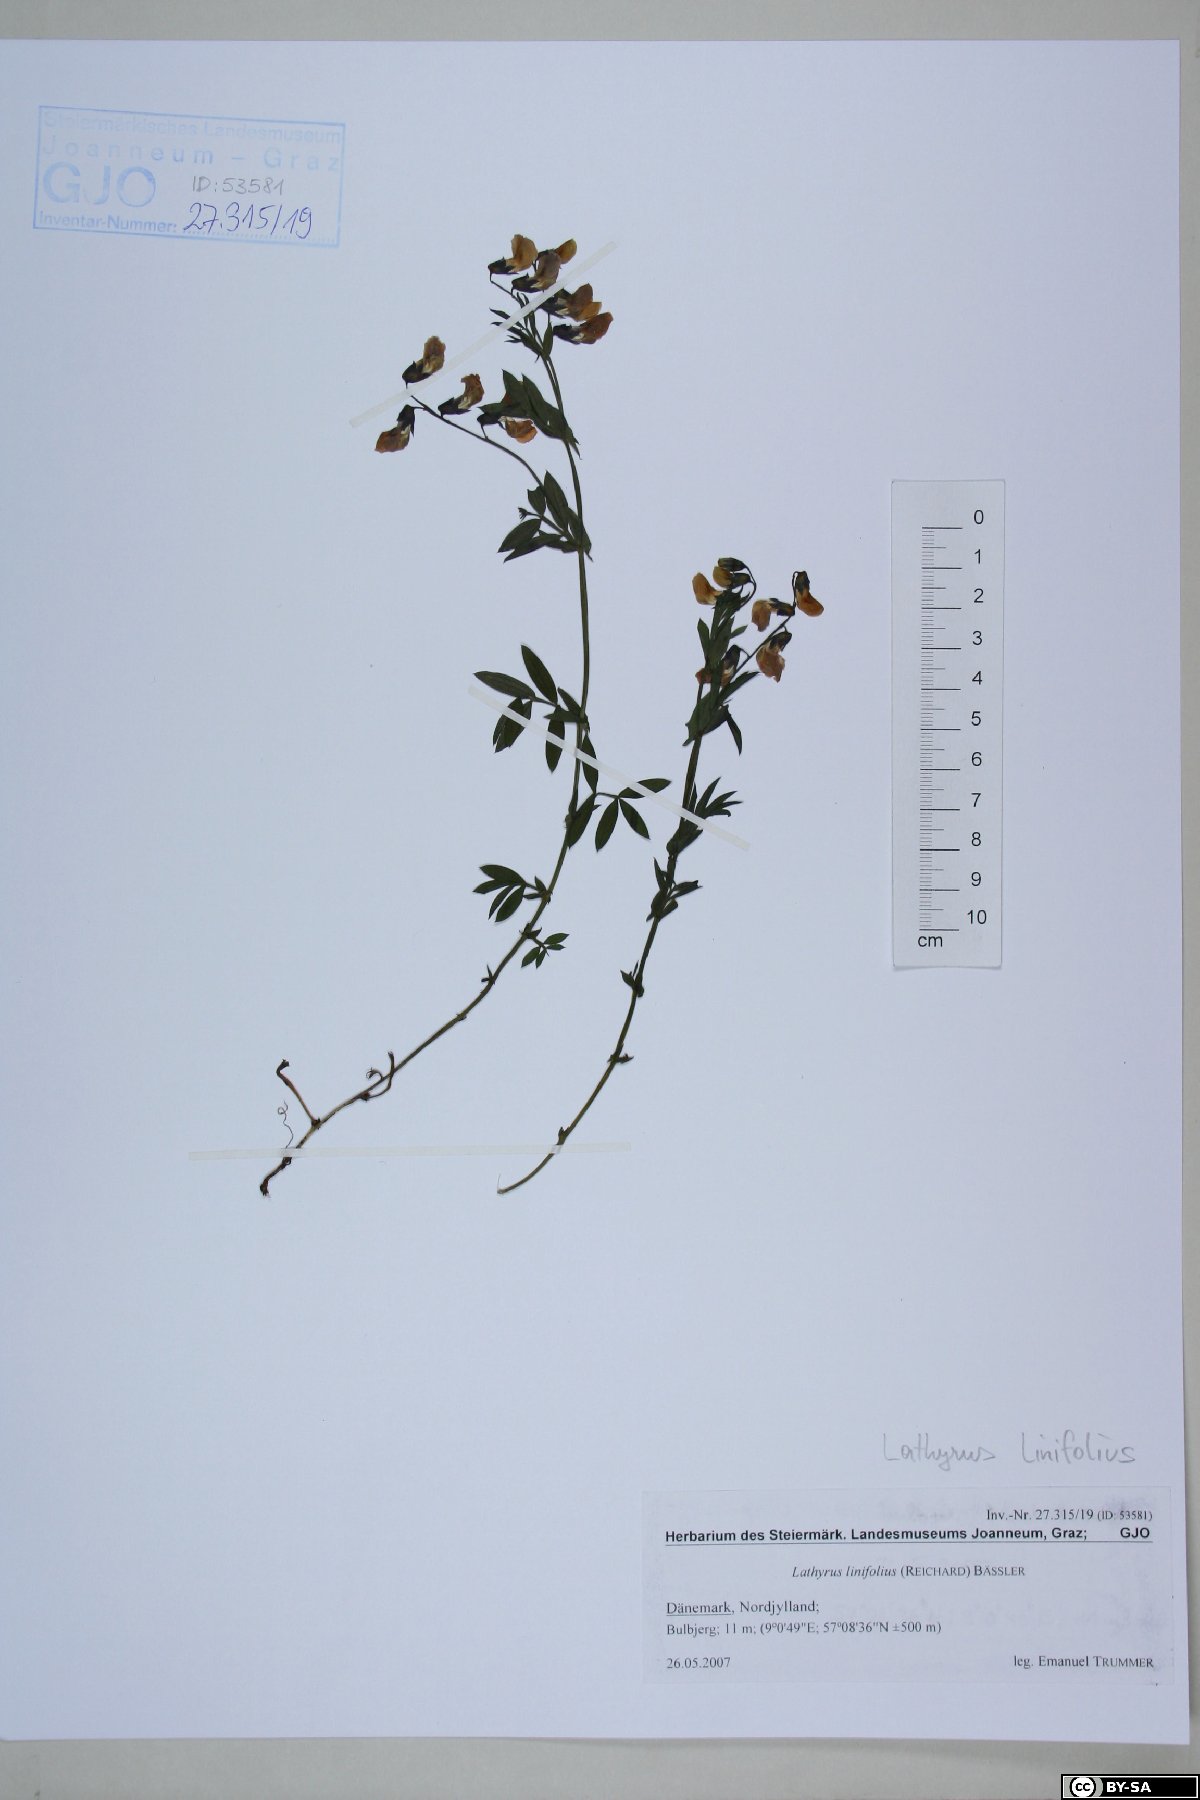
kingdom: Plantae
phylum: Tracheophyta
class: Magnoliopsida
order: Fabales
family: Fabaceae
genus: Lathyrus
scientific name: Lathyrus linifolius
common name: Bitter-vetch
